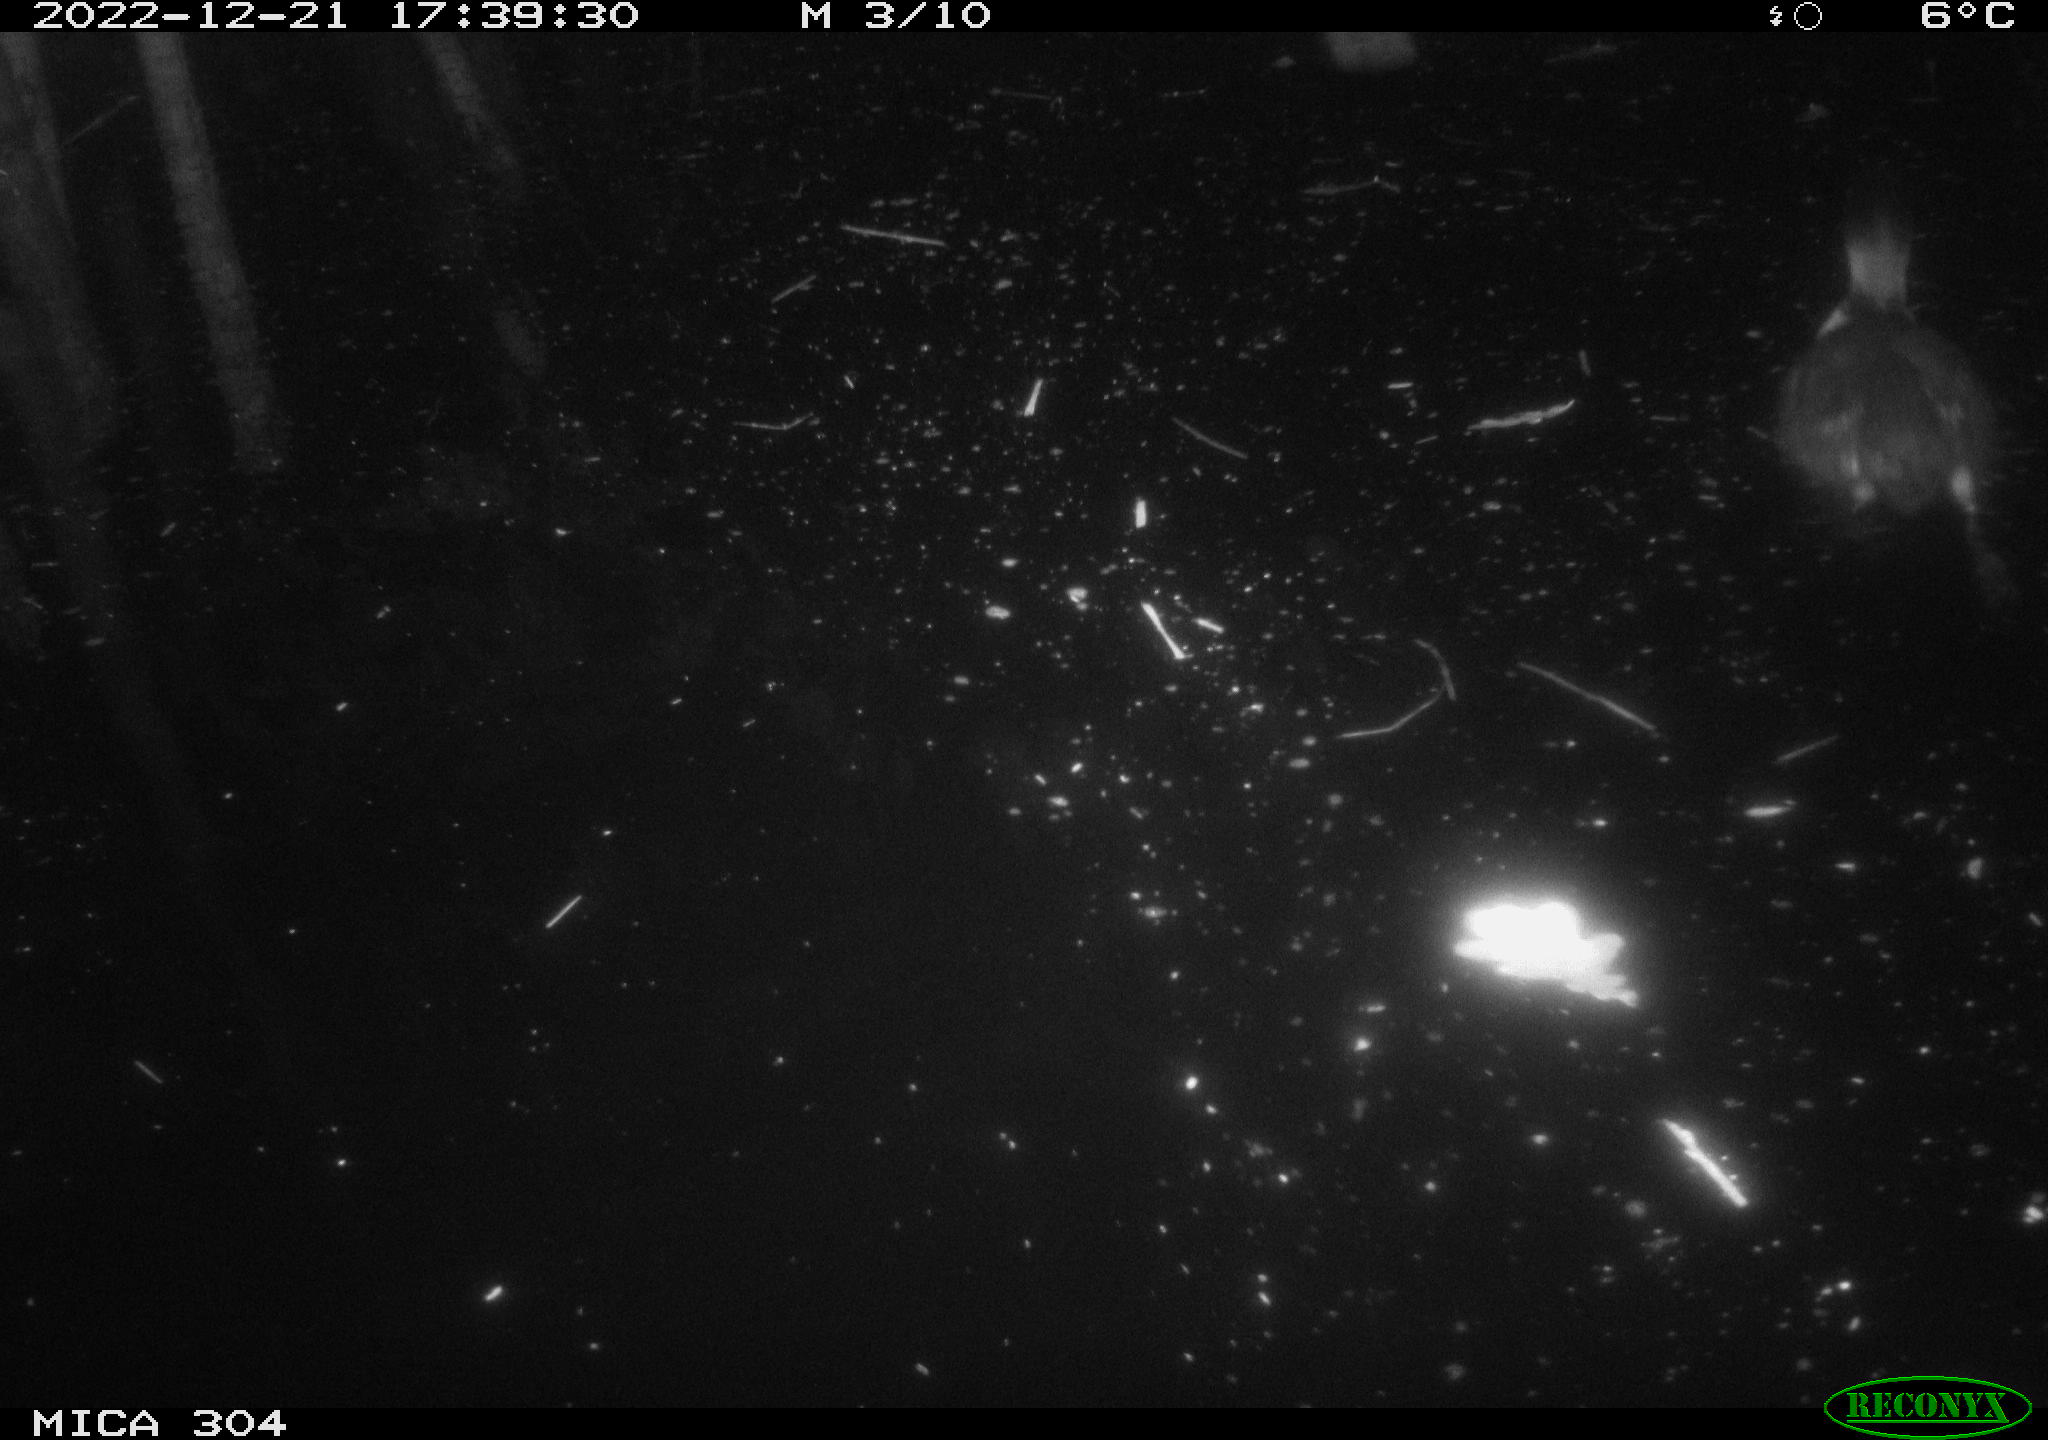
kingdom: Animalia
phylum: Chordata
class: Aves
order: Gruiformes
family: Rallidae
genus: Fulica
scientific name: Fulica atra
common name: Eurasian coot
